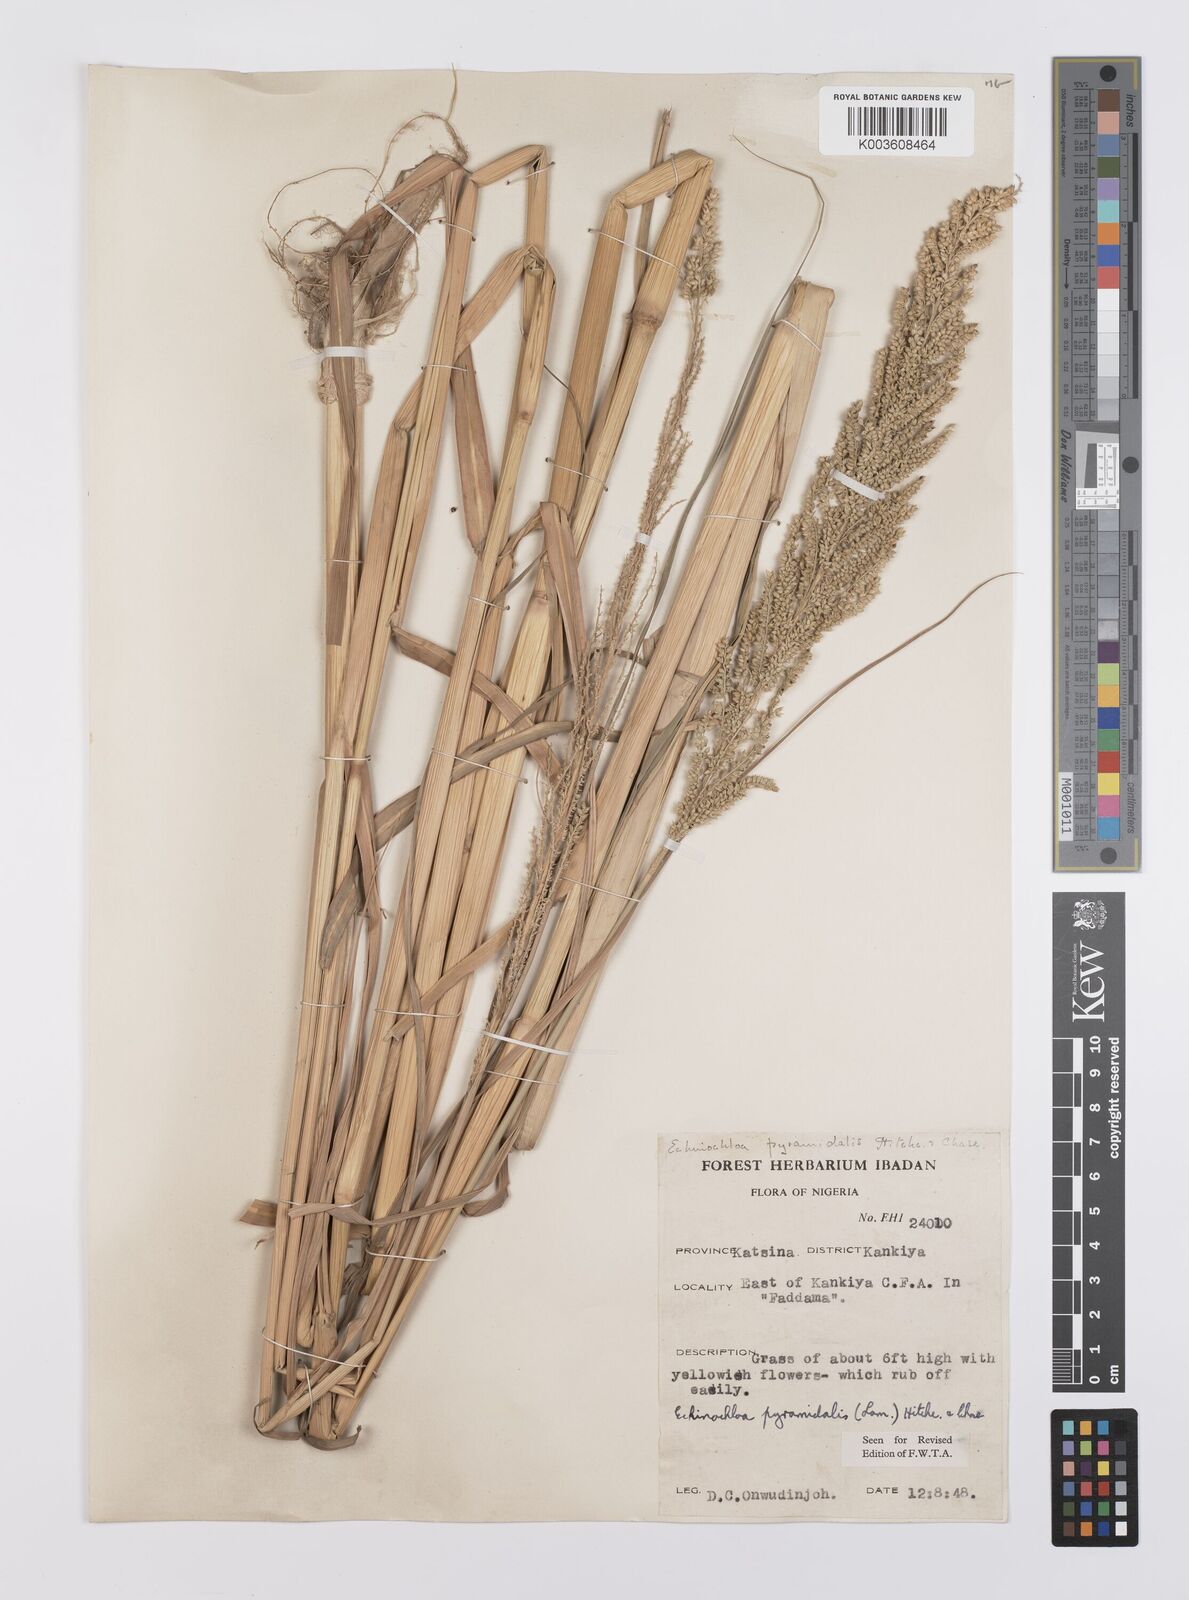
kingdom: Plantae
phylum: Tracheophyta
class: Liliopsida
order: Poales
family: Poaceae
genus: Echinochloa
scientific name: Echinochloa pyramidalis
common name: Antelope grass
